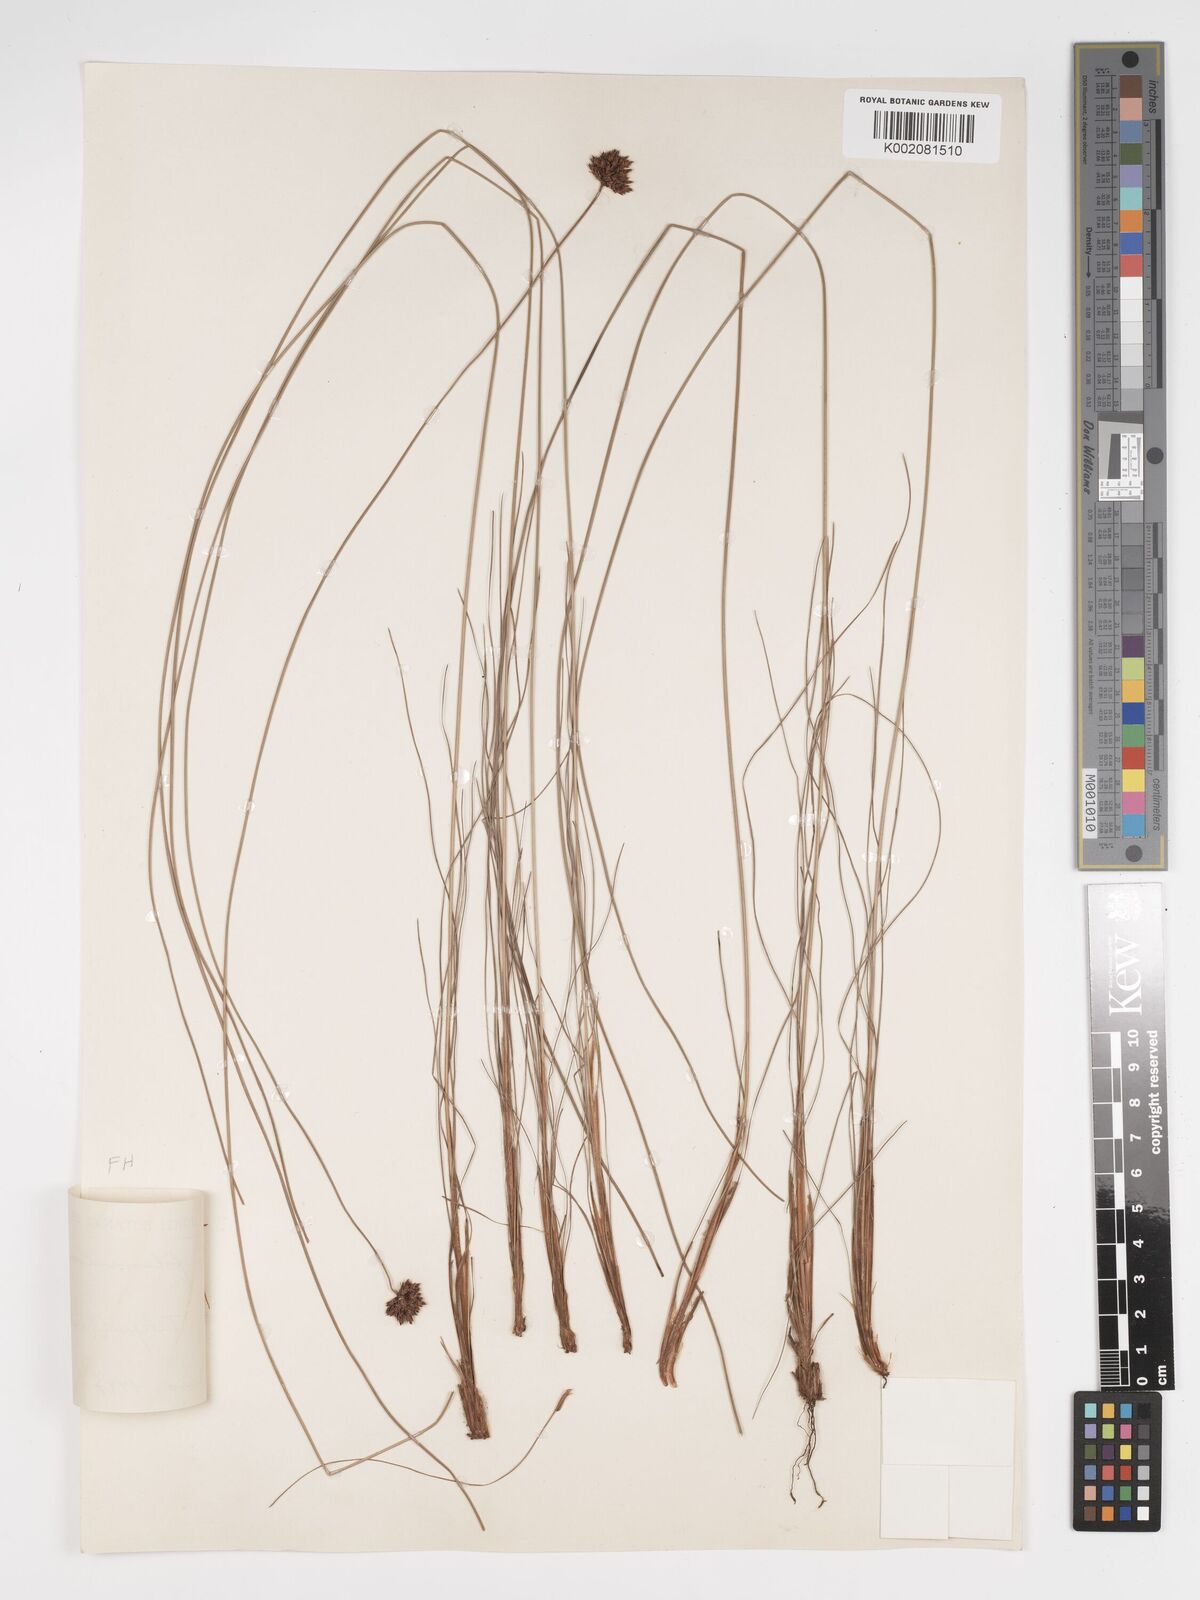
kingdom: Plantae
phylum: Tracheophyta
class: Liliopsida
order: Poales
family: Cyperaceae
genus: Bulbostylis
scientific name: Bulbostylis scabricaulis
